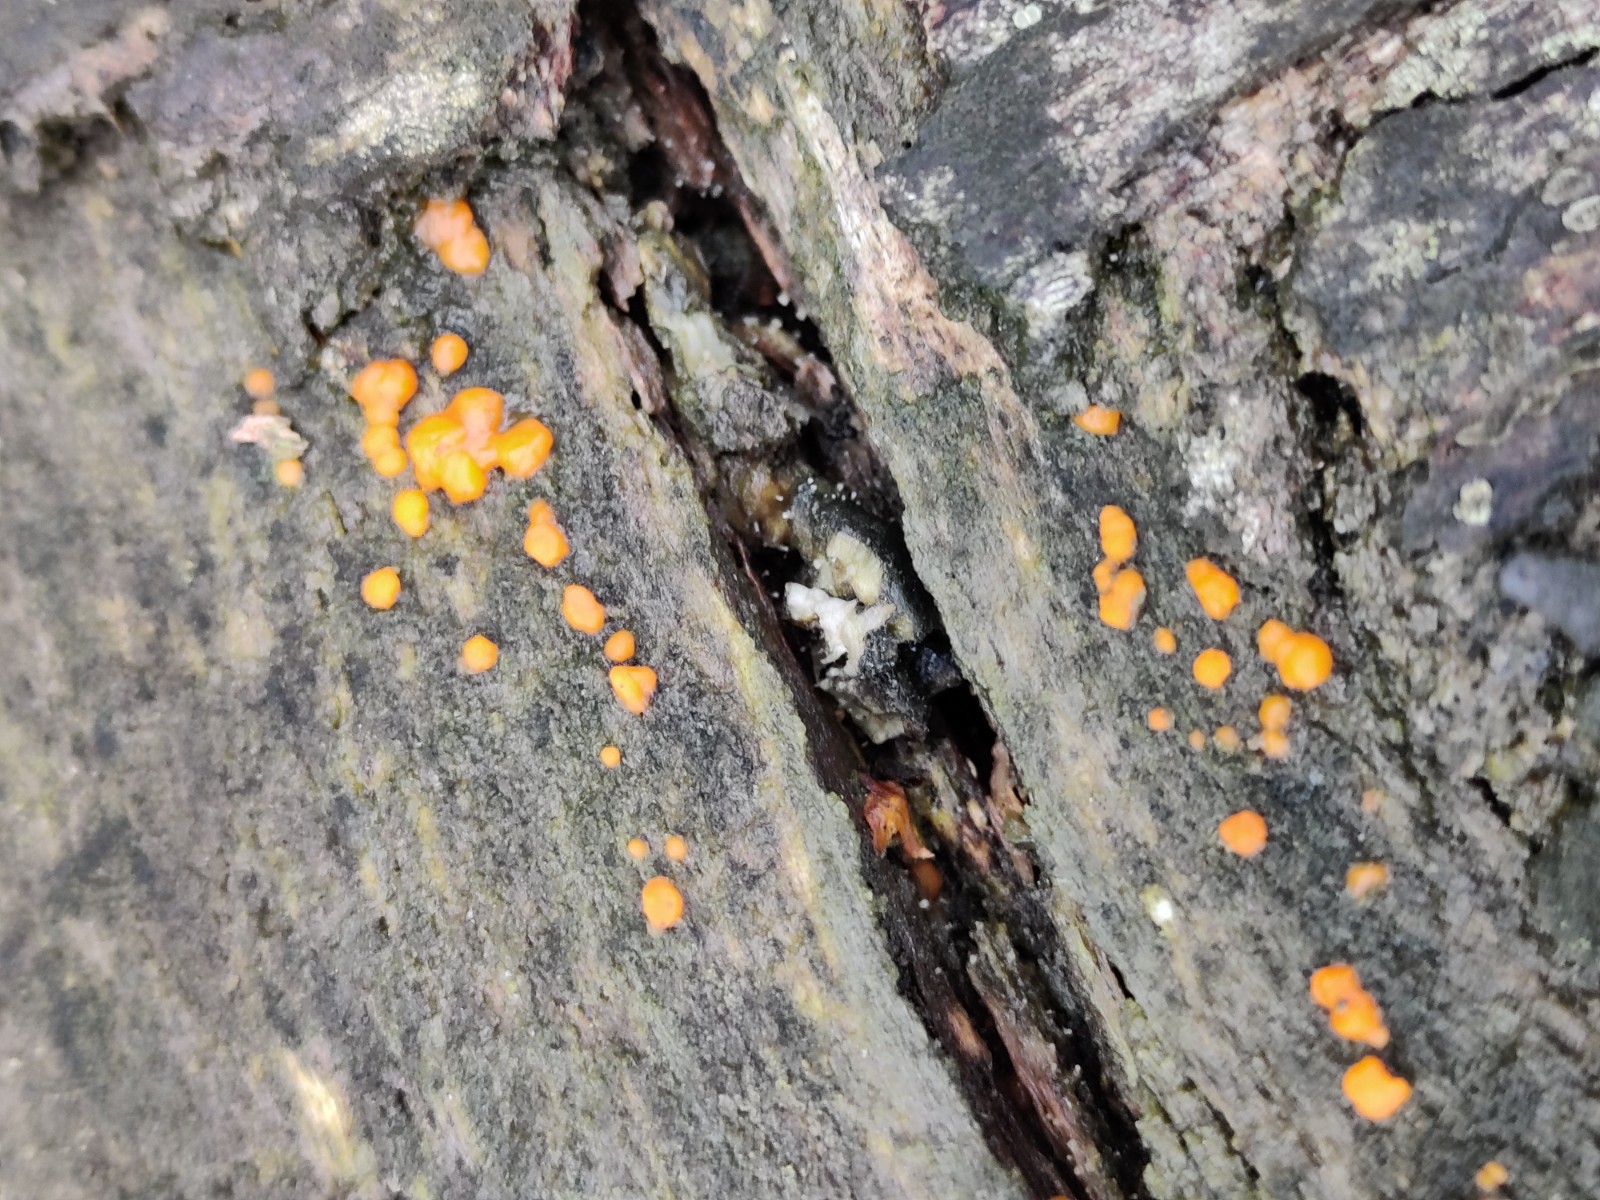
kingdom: Fungi
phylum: Basidiomycota
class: Dacrymycetes
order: Dacrymycetales
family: Dacrymycetaceae
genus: Dacrymyces
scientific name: Dacrymyces stillatus
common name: almindelig tåresvamp
